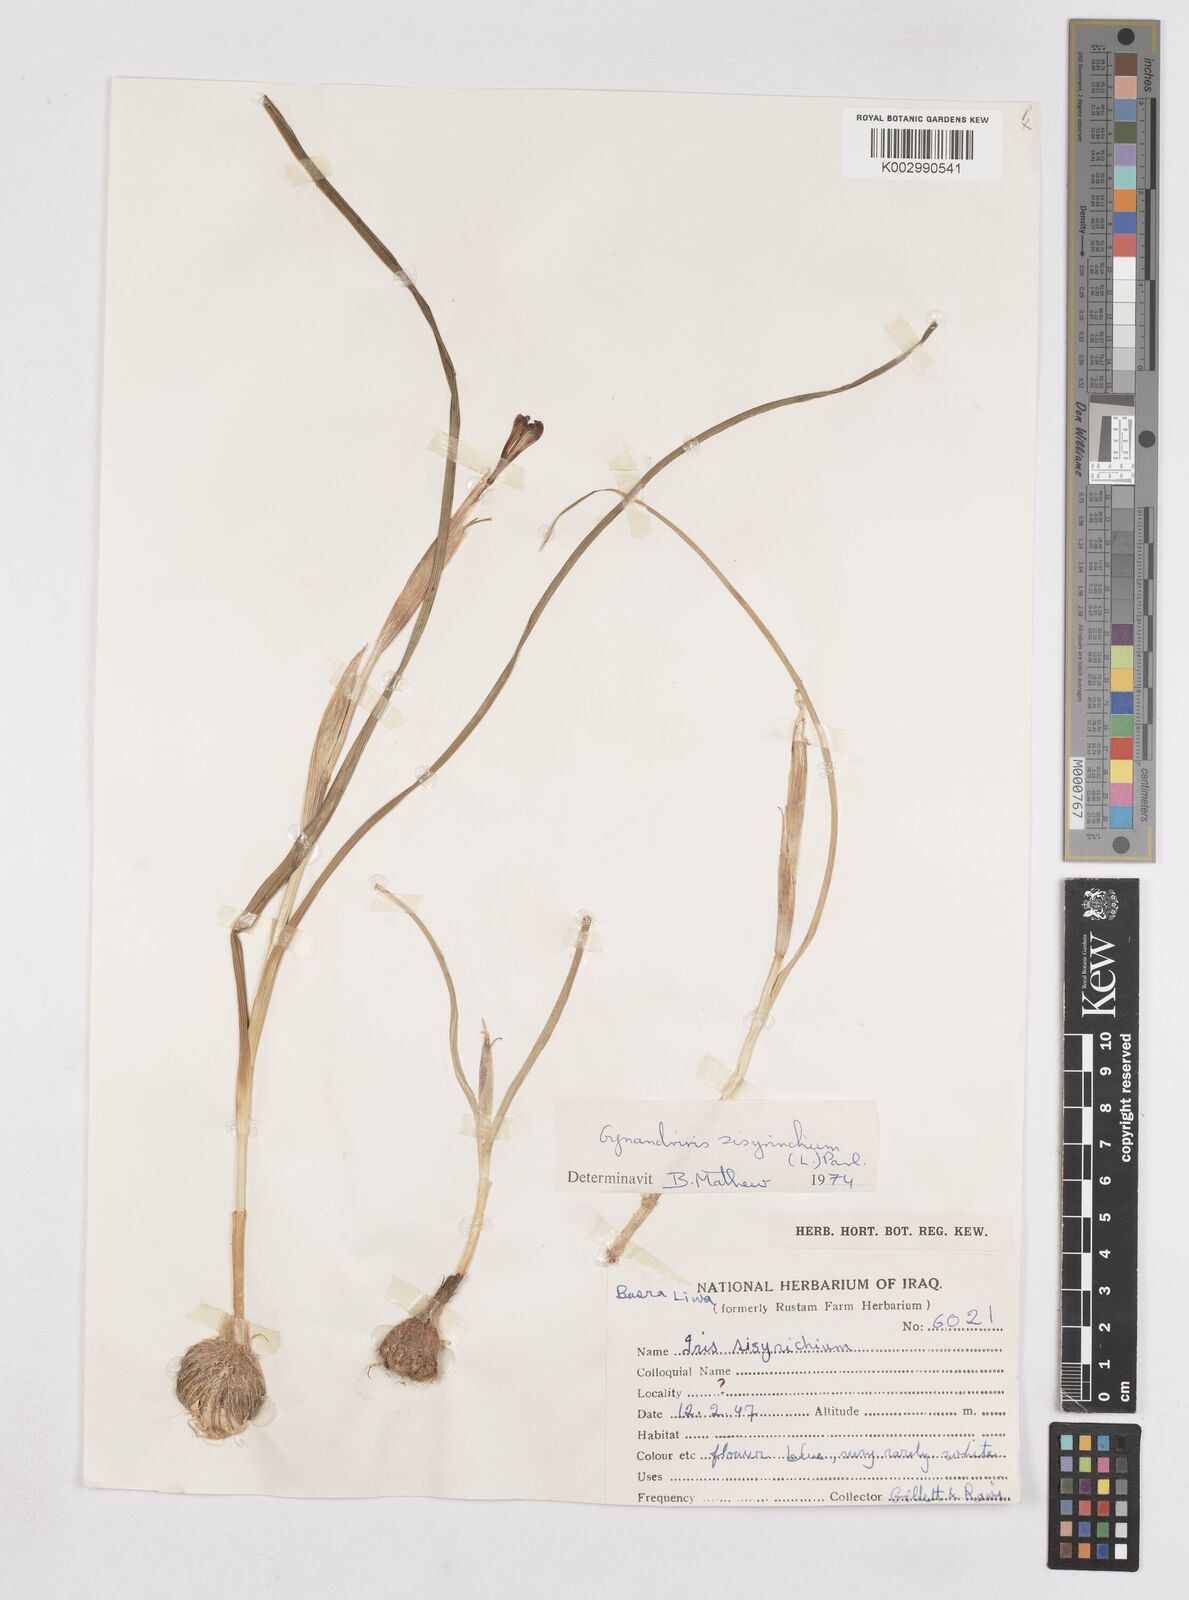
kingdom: Plantae
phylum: Tracheophyta
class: Liliopsida
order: Asparagales
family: Iridaceae
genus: Moraea
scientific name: Moraea sisyrinchium
